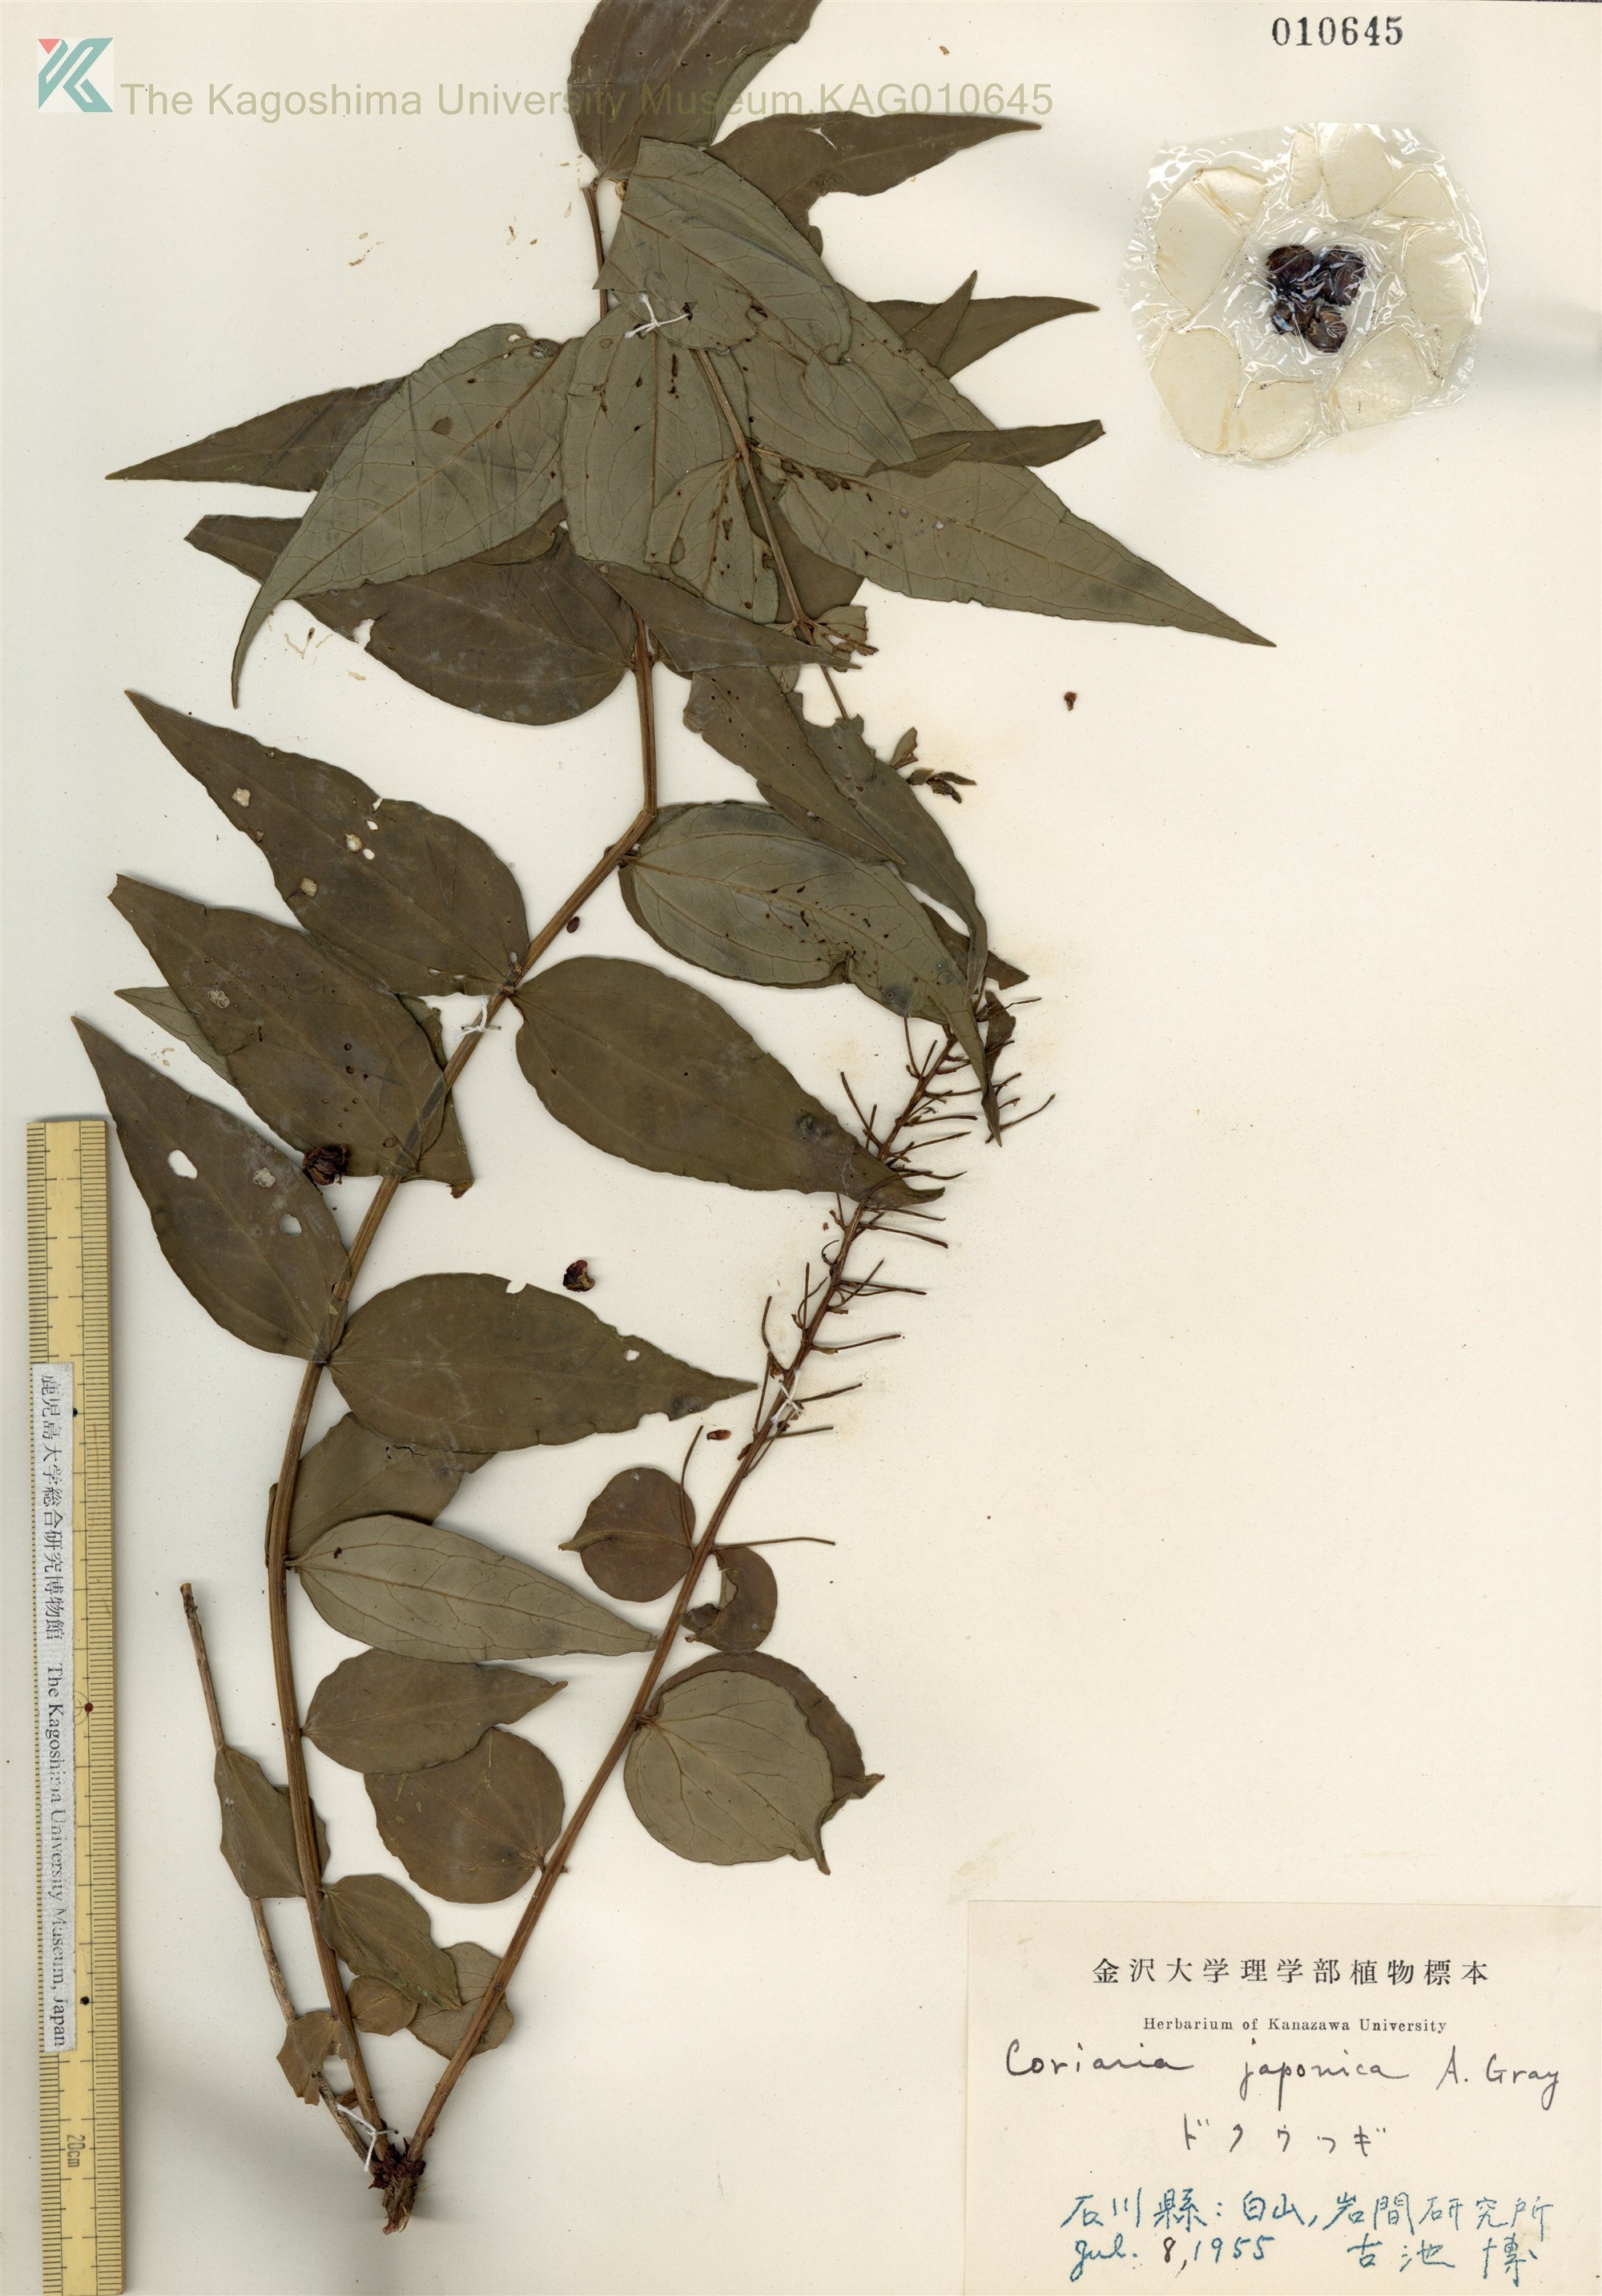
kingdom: Plantae
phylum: Tracheophyta
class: Magnoliopsida
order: Cucurbitales
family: Coriariaceae
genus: Coriaria
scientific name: Coriaria japonica
